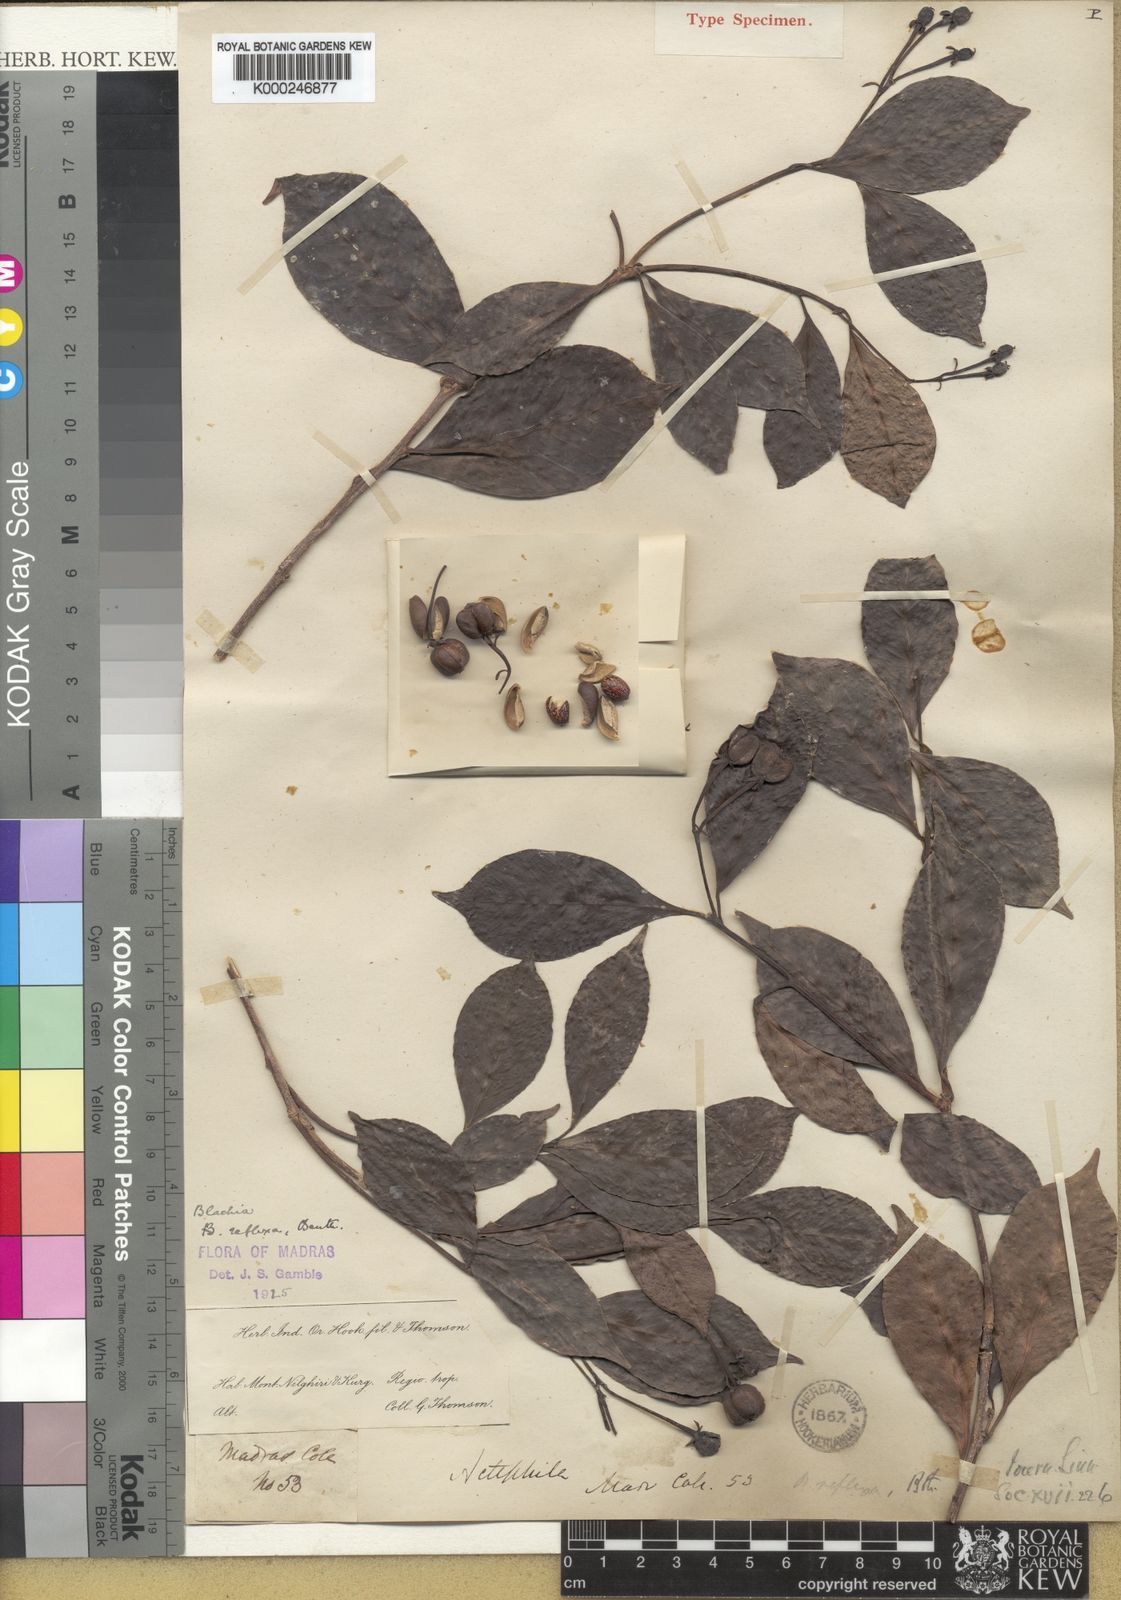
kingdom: Plantae
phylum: Tracheophyta
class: Magnoliopsida
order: Malpighiales
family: Euphorbiaceae
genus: Blachia
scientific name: Blachia umbellata
